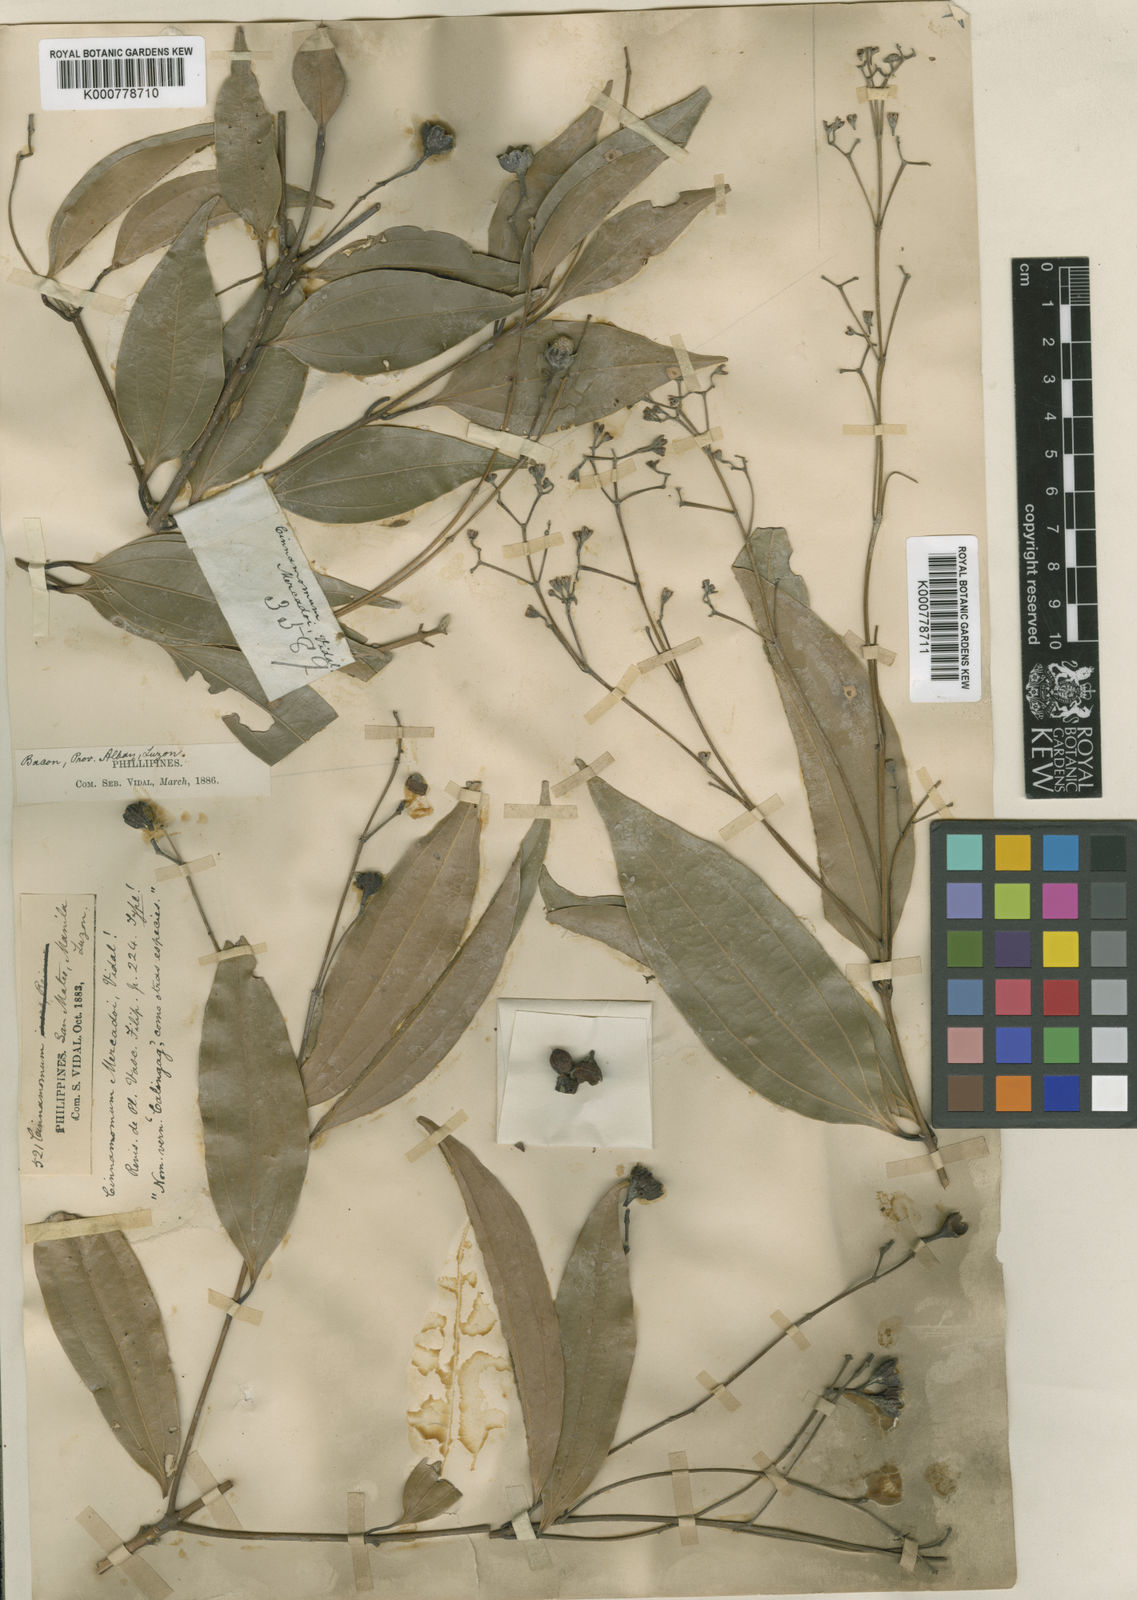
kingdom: Plantae
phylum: Tracheophyta
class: Magnoliopsida
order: Laurales
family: Lauraceae
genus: Cinnamomum
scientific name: Cinnamomum mercadoi
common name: Cinamomon
